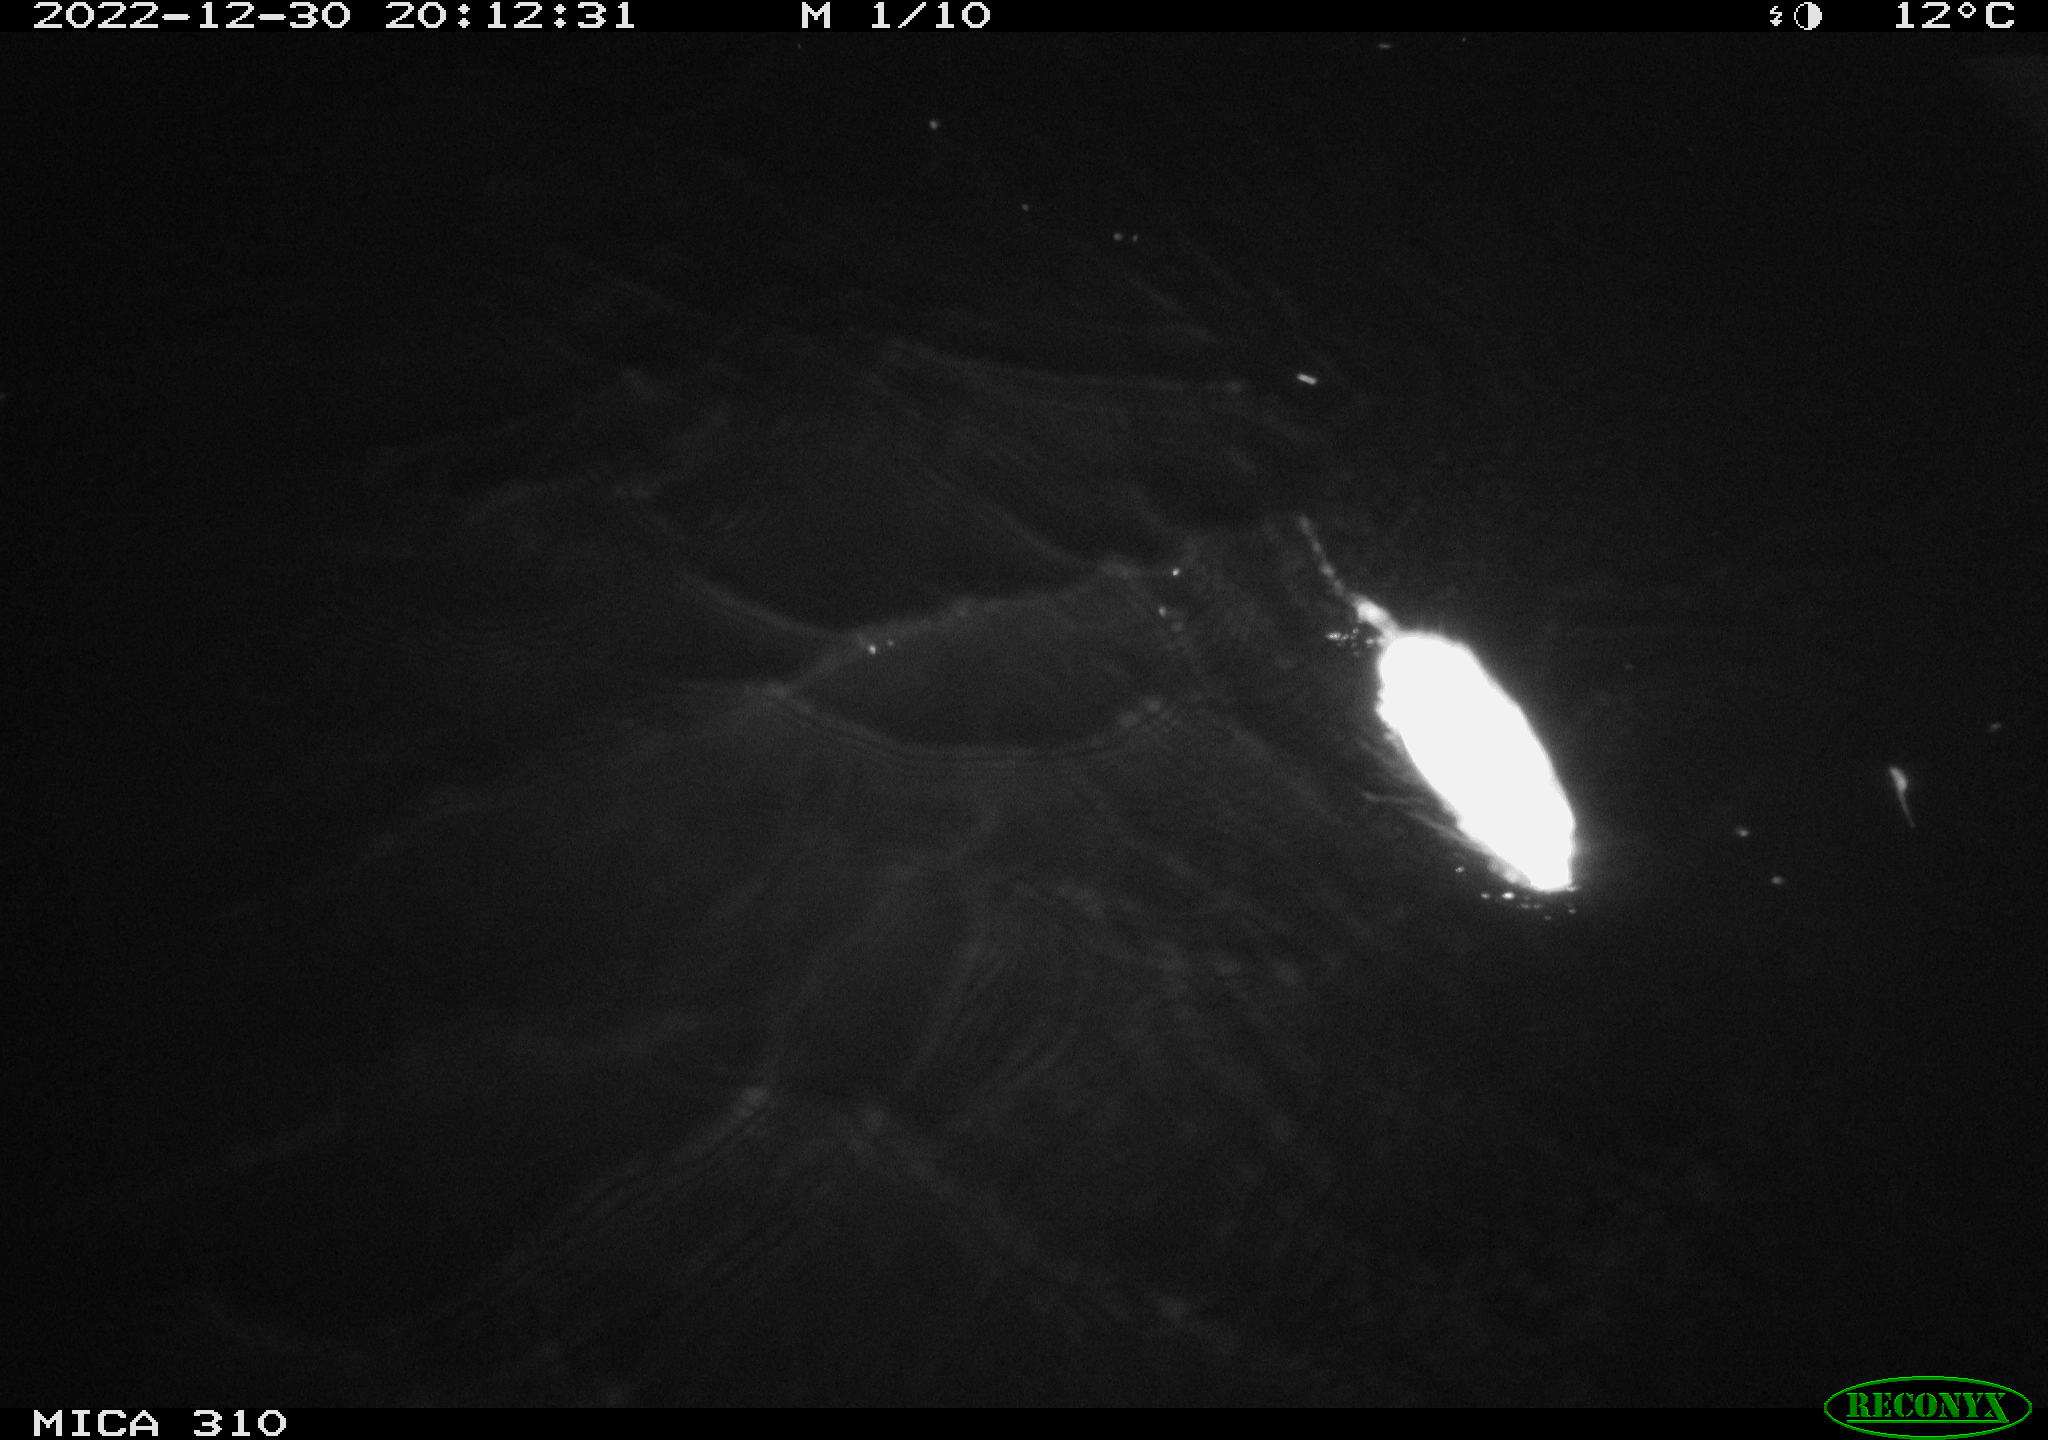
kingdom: Animalia
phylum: Chordata
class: Mammalia
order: Rodentia
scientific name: Rodentia
